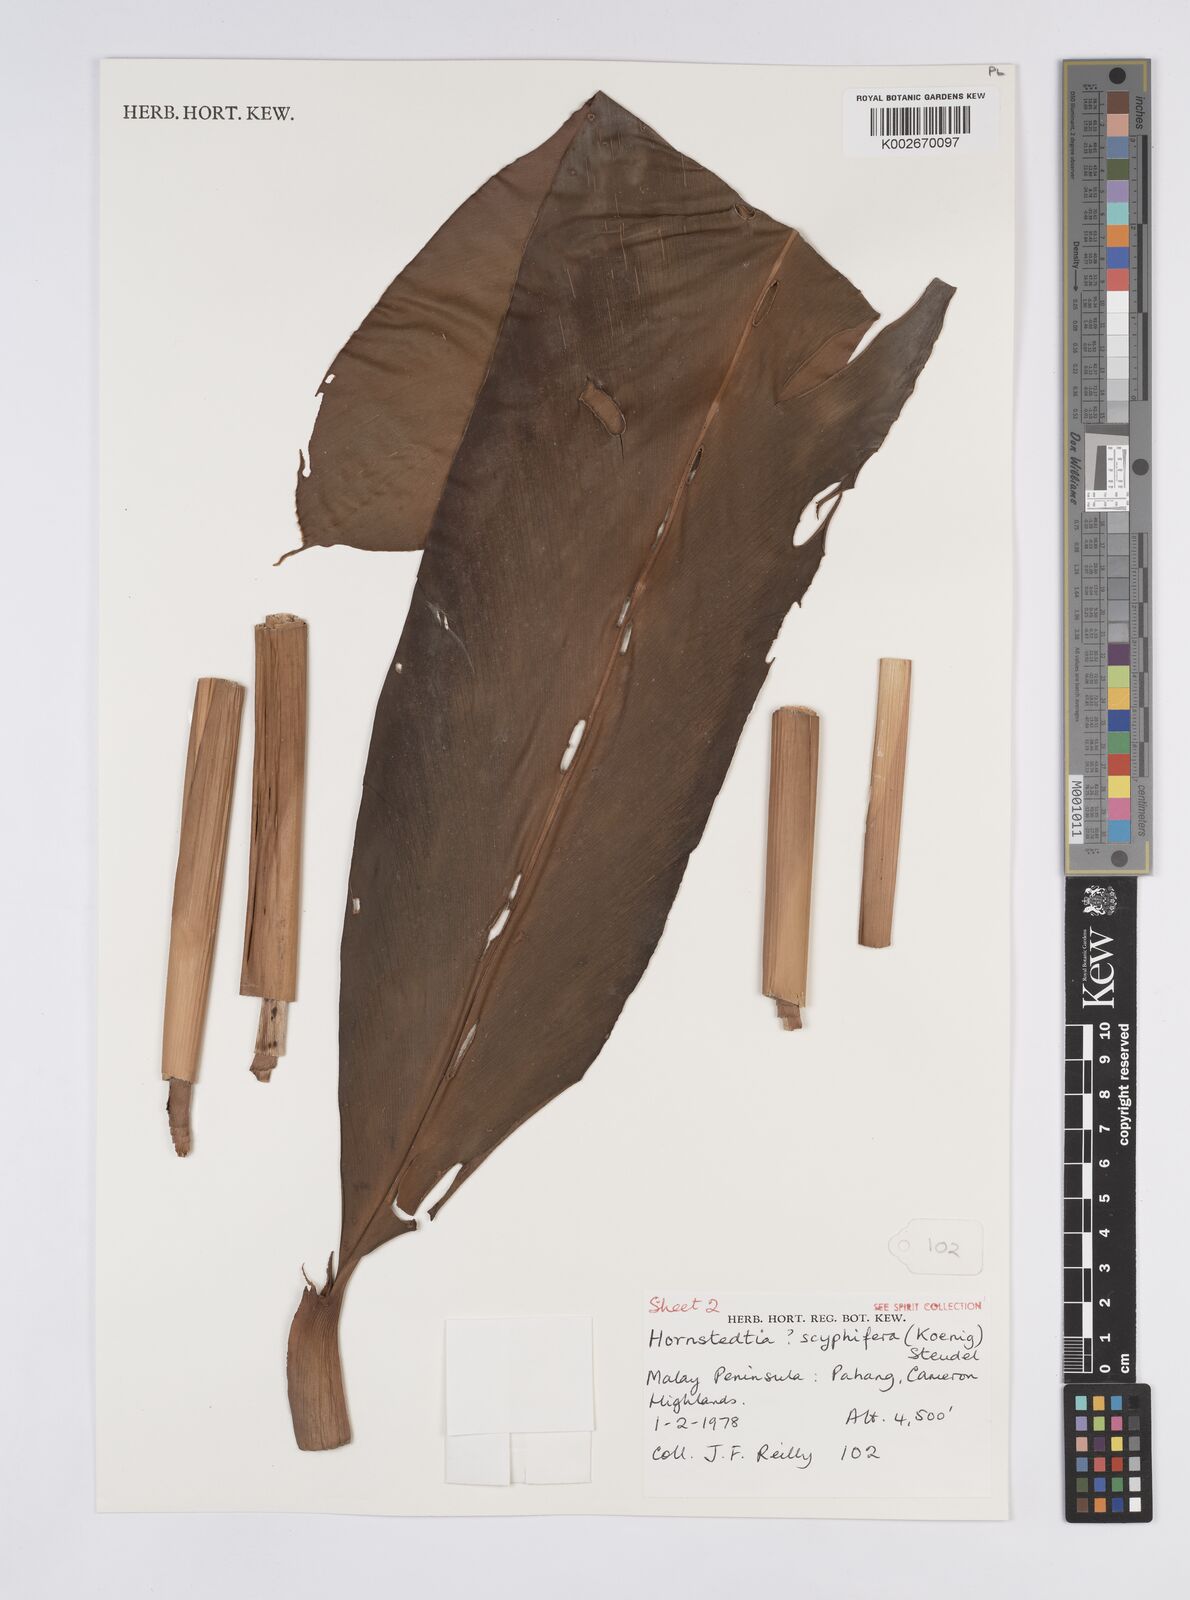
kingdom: Plantae
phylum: Tracheophyta
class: Liliopsida
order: Zingiberales
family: Zingiberaceae
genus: Hornstedtia
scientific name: Hornstedtia scyphifera
